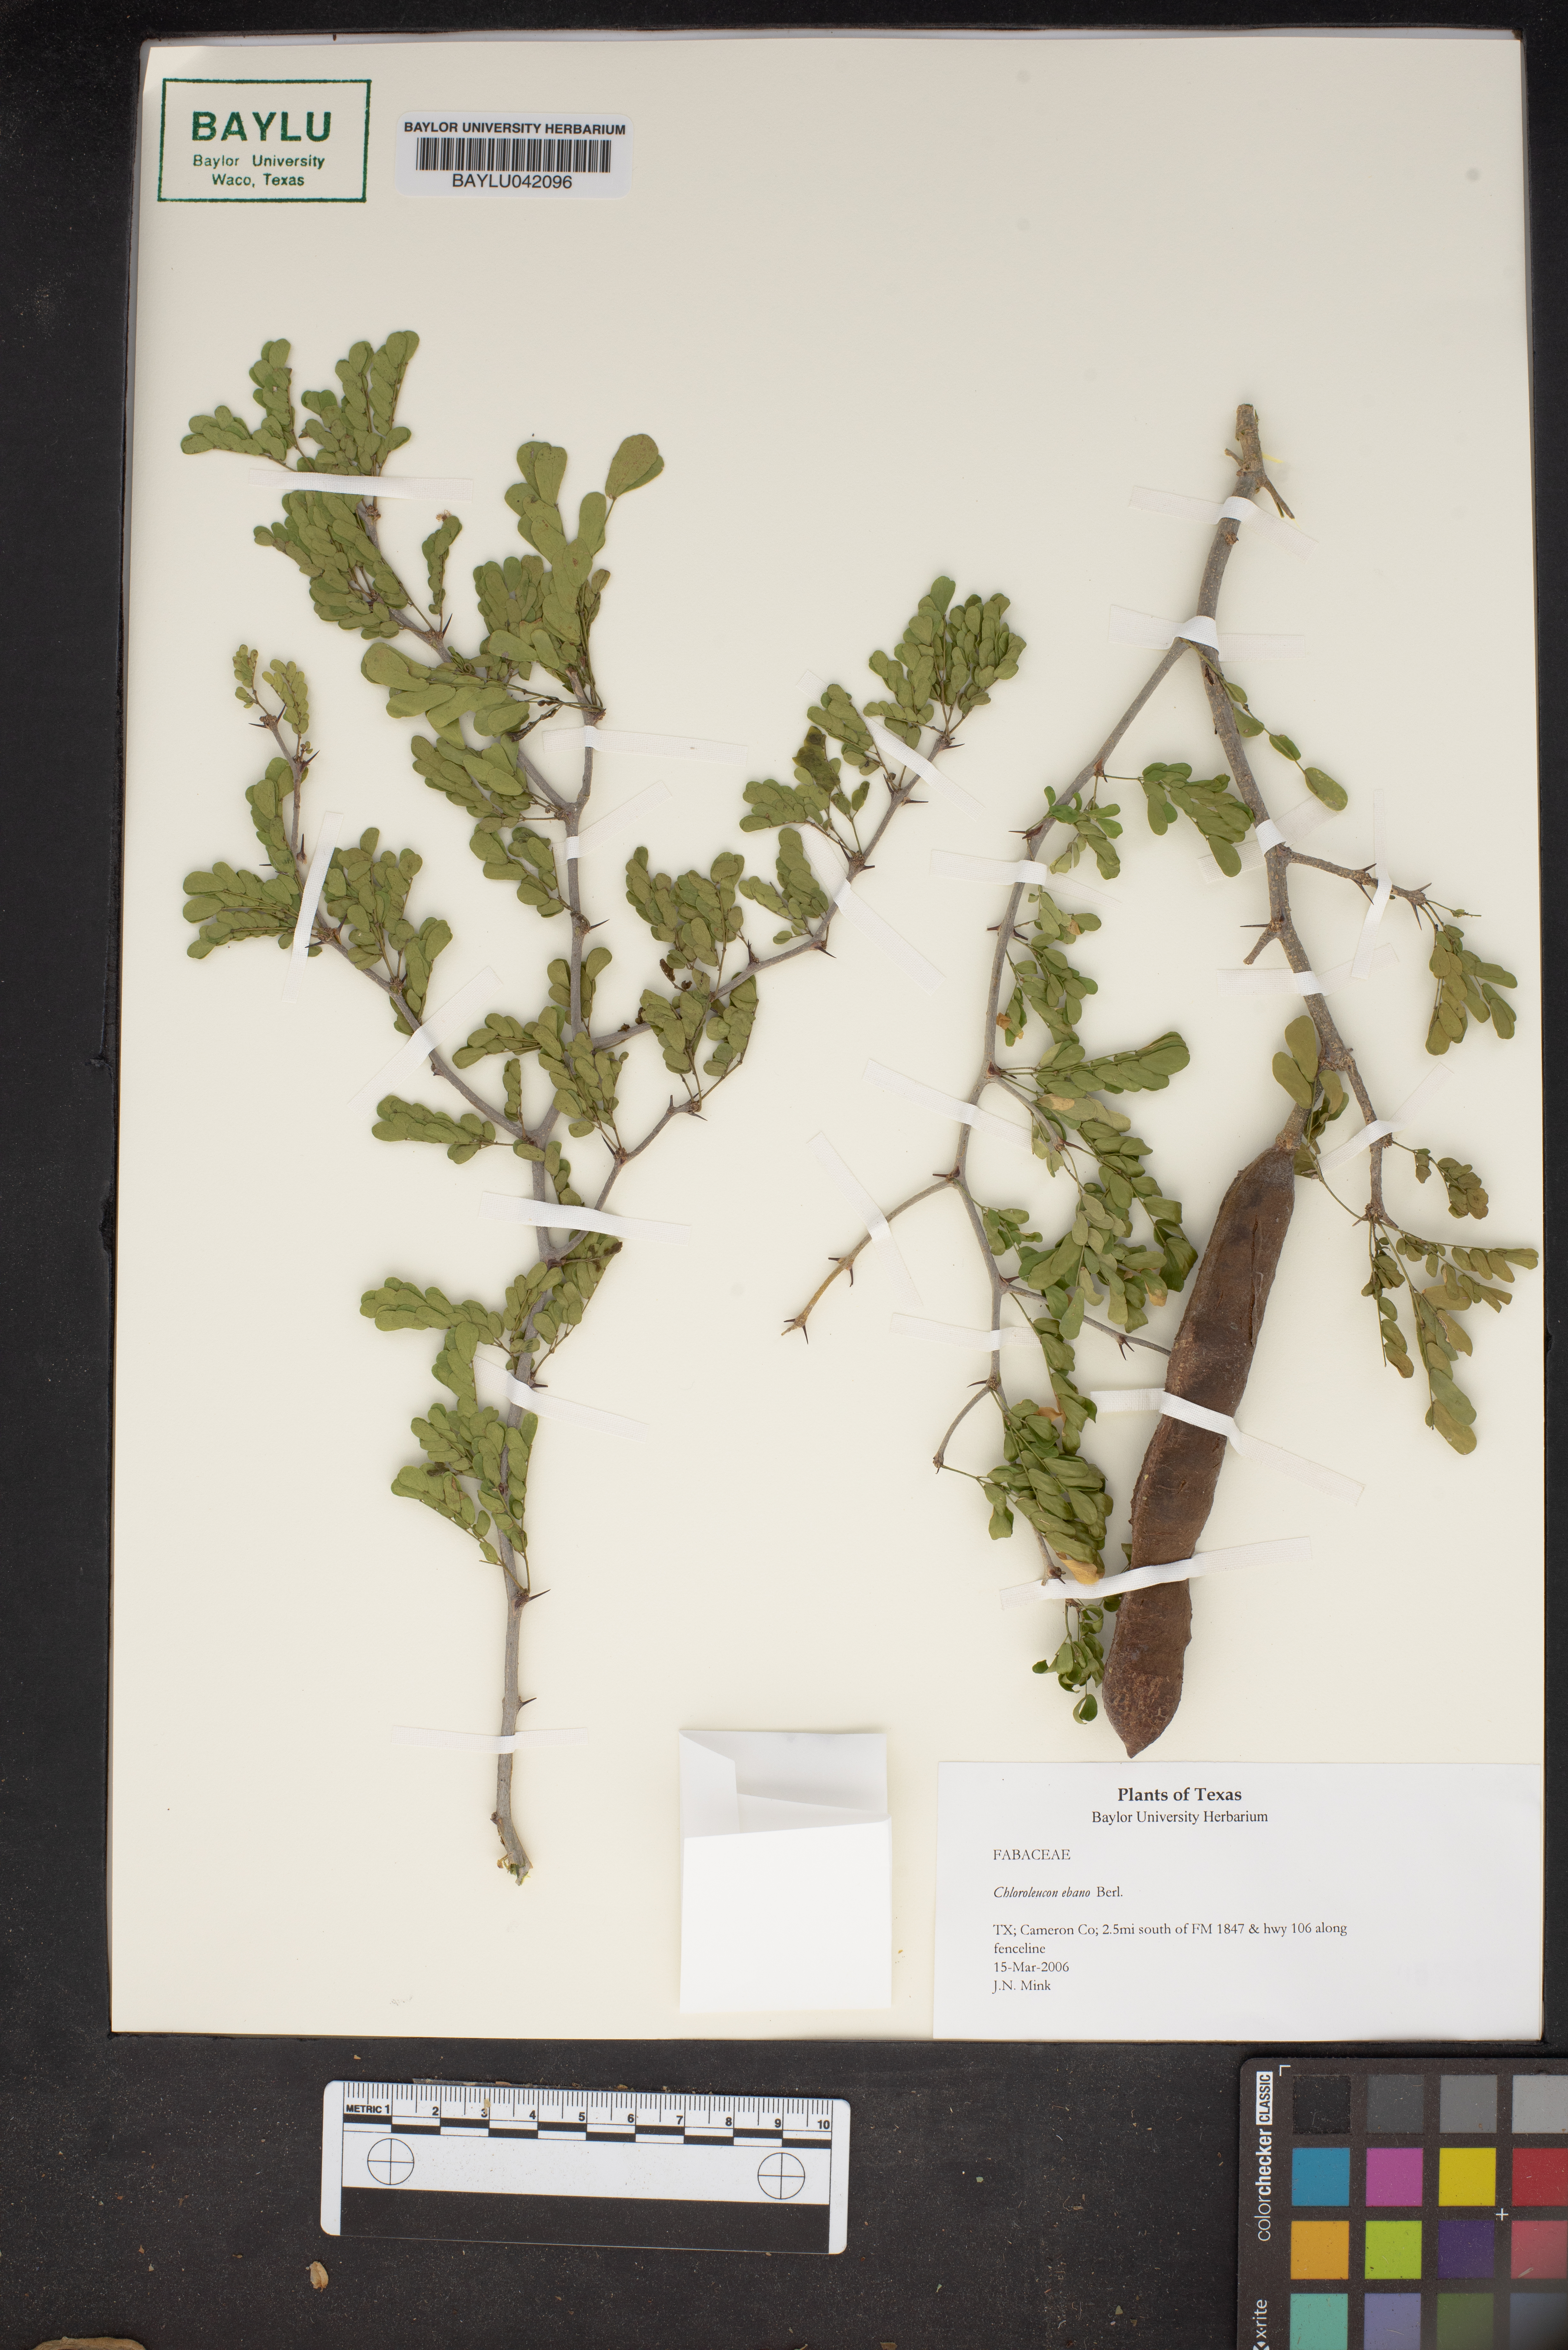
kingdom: Plantae
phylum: Tracheophyta
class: Magnoliopsida
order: Fabales
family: Fabaceae
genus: Ebenopsis
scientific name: Ebenopsis ebano
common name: Ebony blackbead
